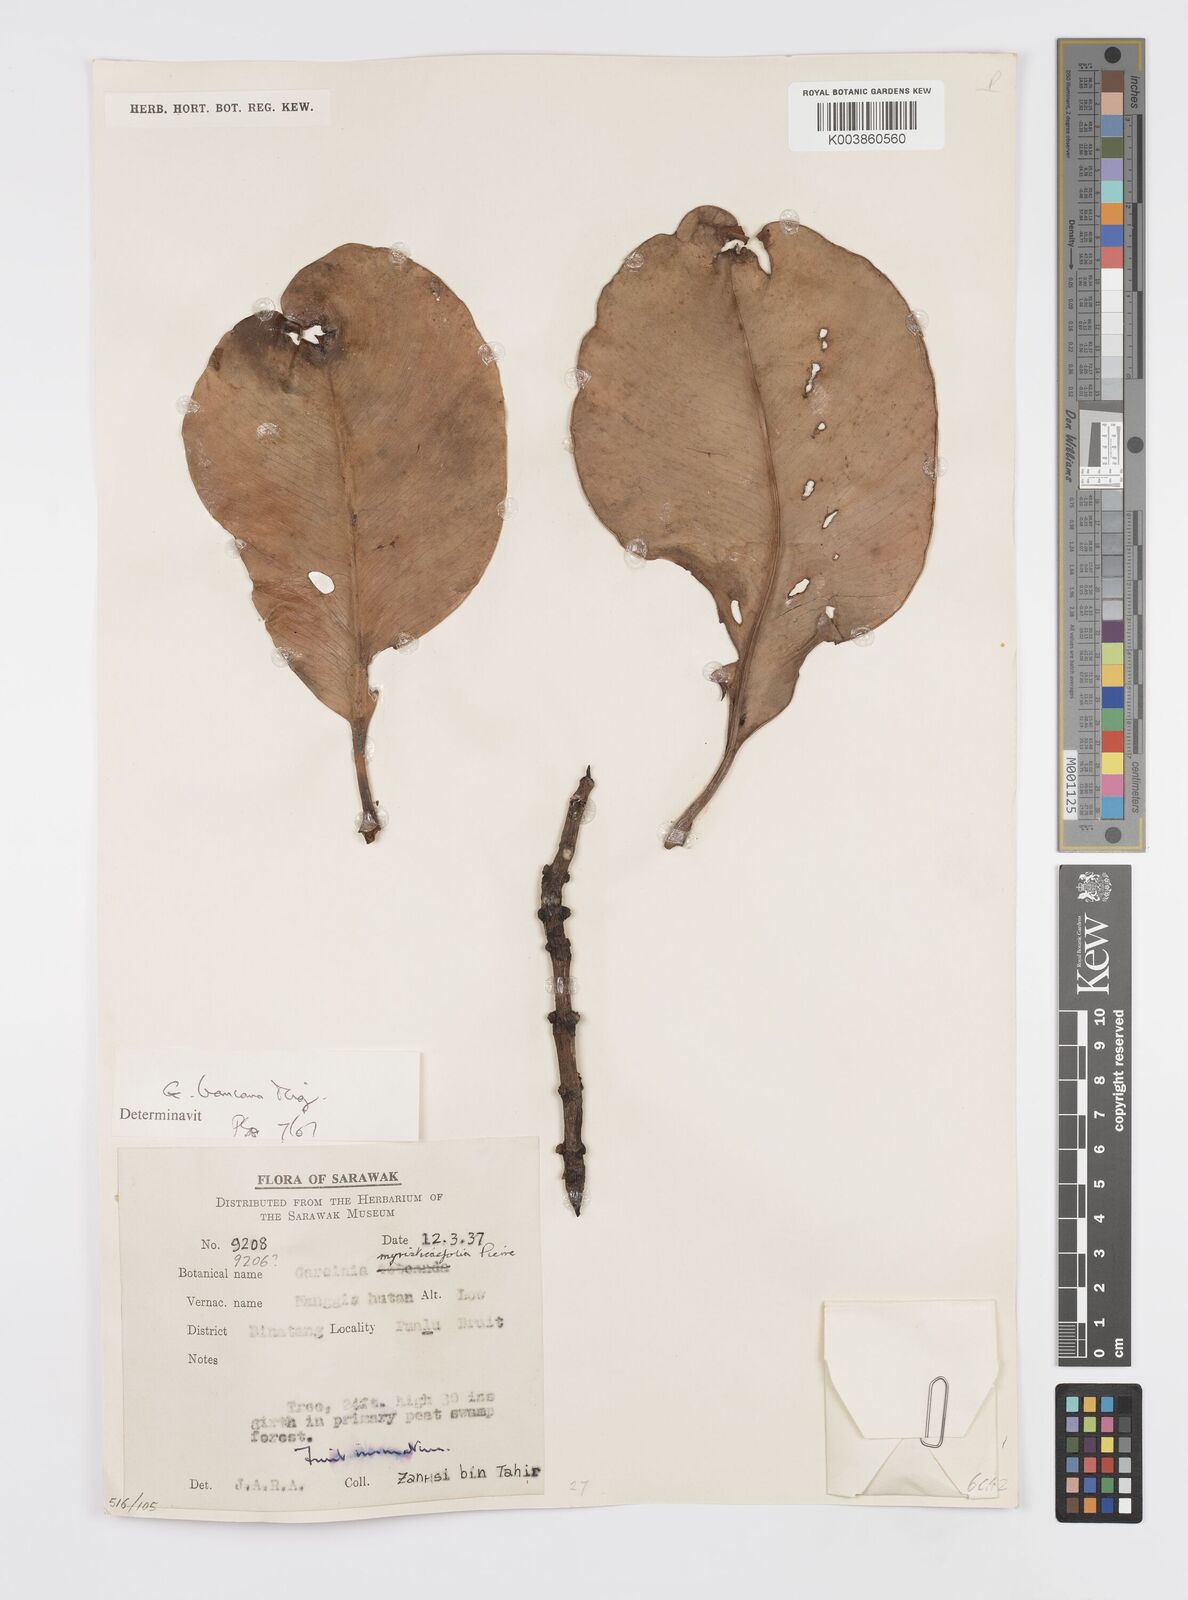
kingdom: Plantae
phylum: Tracheophyta
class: Magnoliopsida
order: Malpighiales
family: Clusiaceae
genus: Garcinia
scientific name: Garcinia bancana
